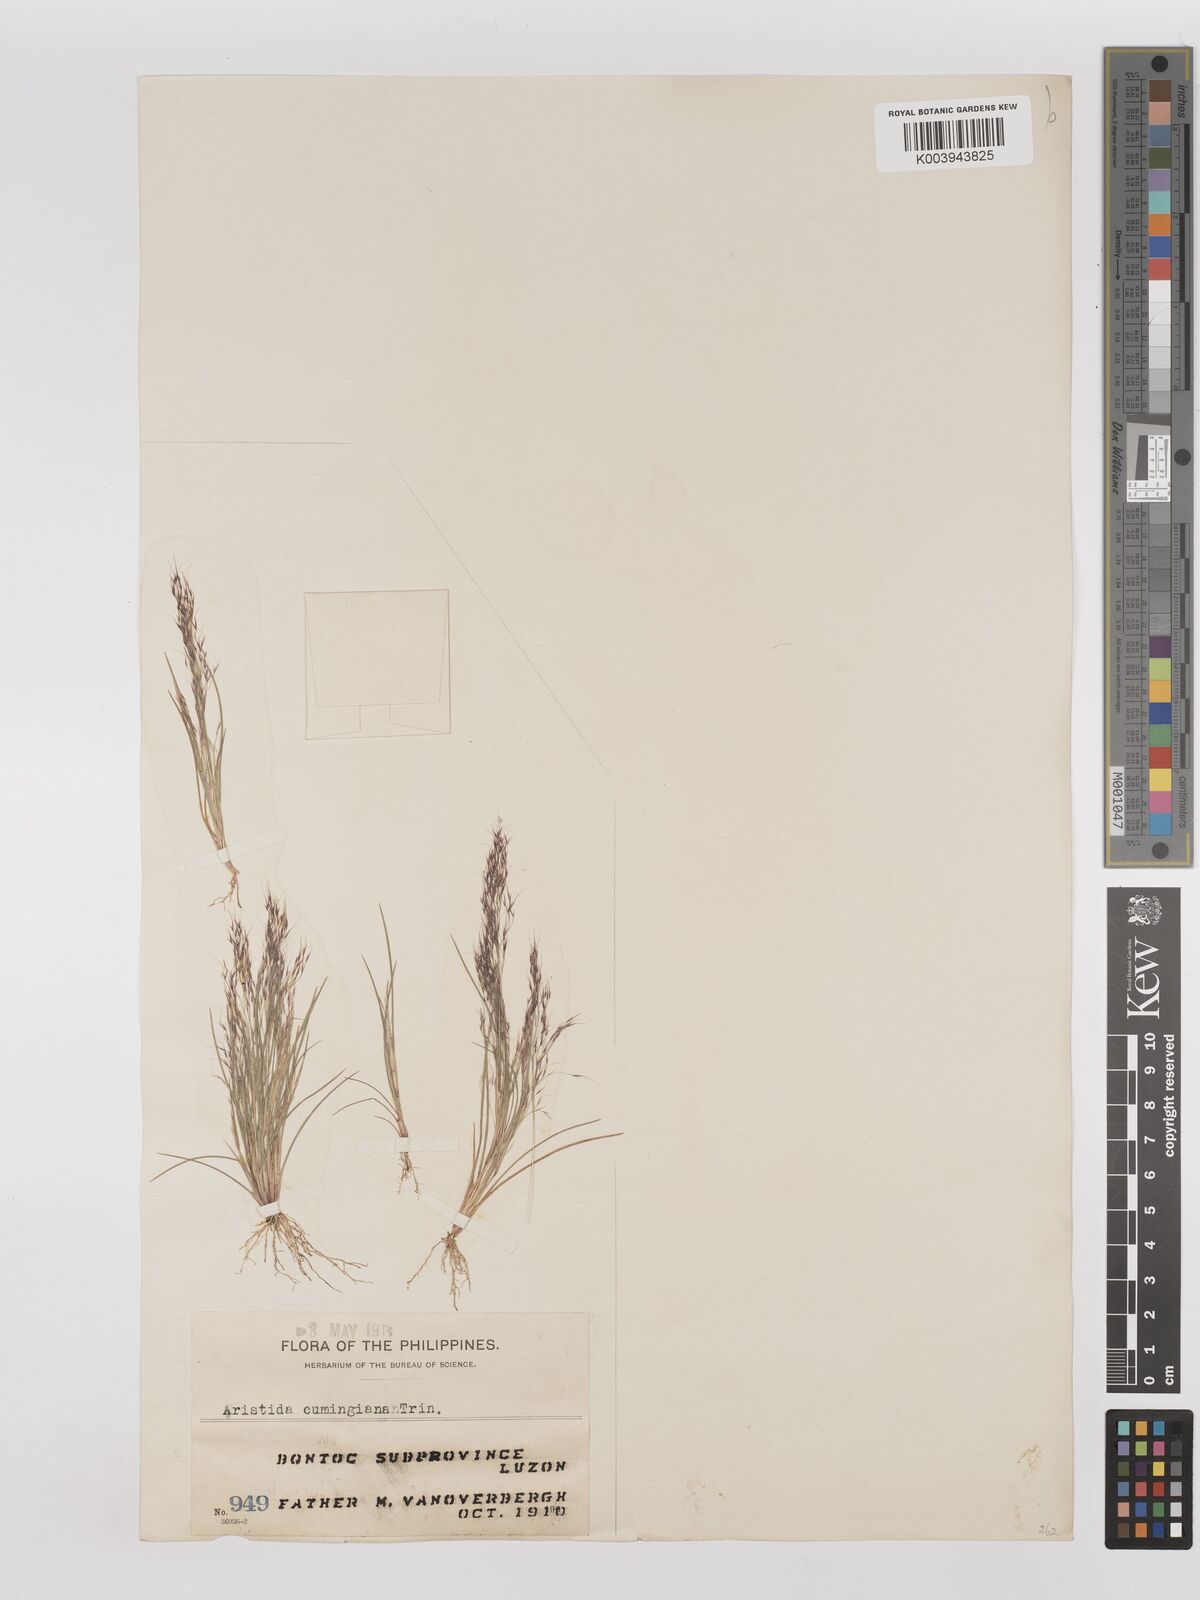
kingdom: Plantae
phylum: Tracheophyta
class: Liliopsida
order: Poales
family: Poaceae
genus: Aristida
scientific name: Aristida cumingiana
